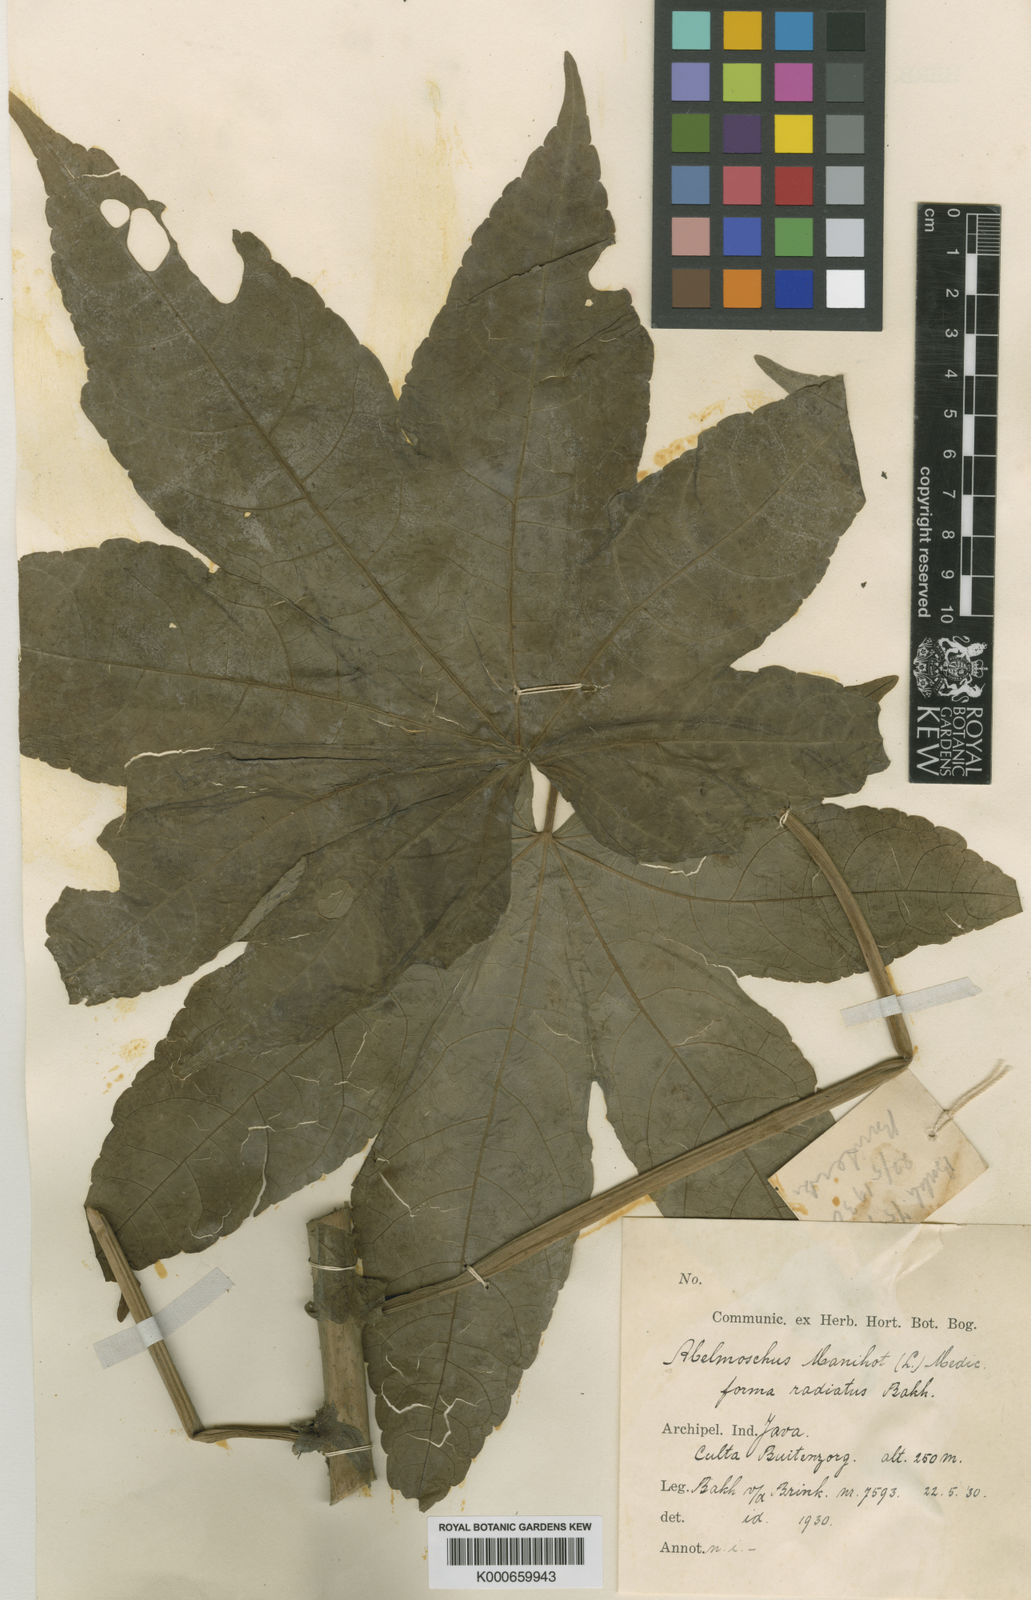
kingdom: Plantae
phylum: Tracheophyta
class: Magnoliopsida
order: Malvales
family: Malvaceae
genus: Abelmoschus
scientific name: Abelmoschus manihot
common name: Sunset muskmallow
